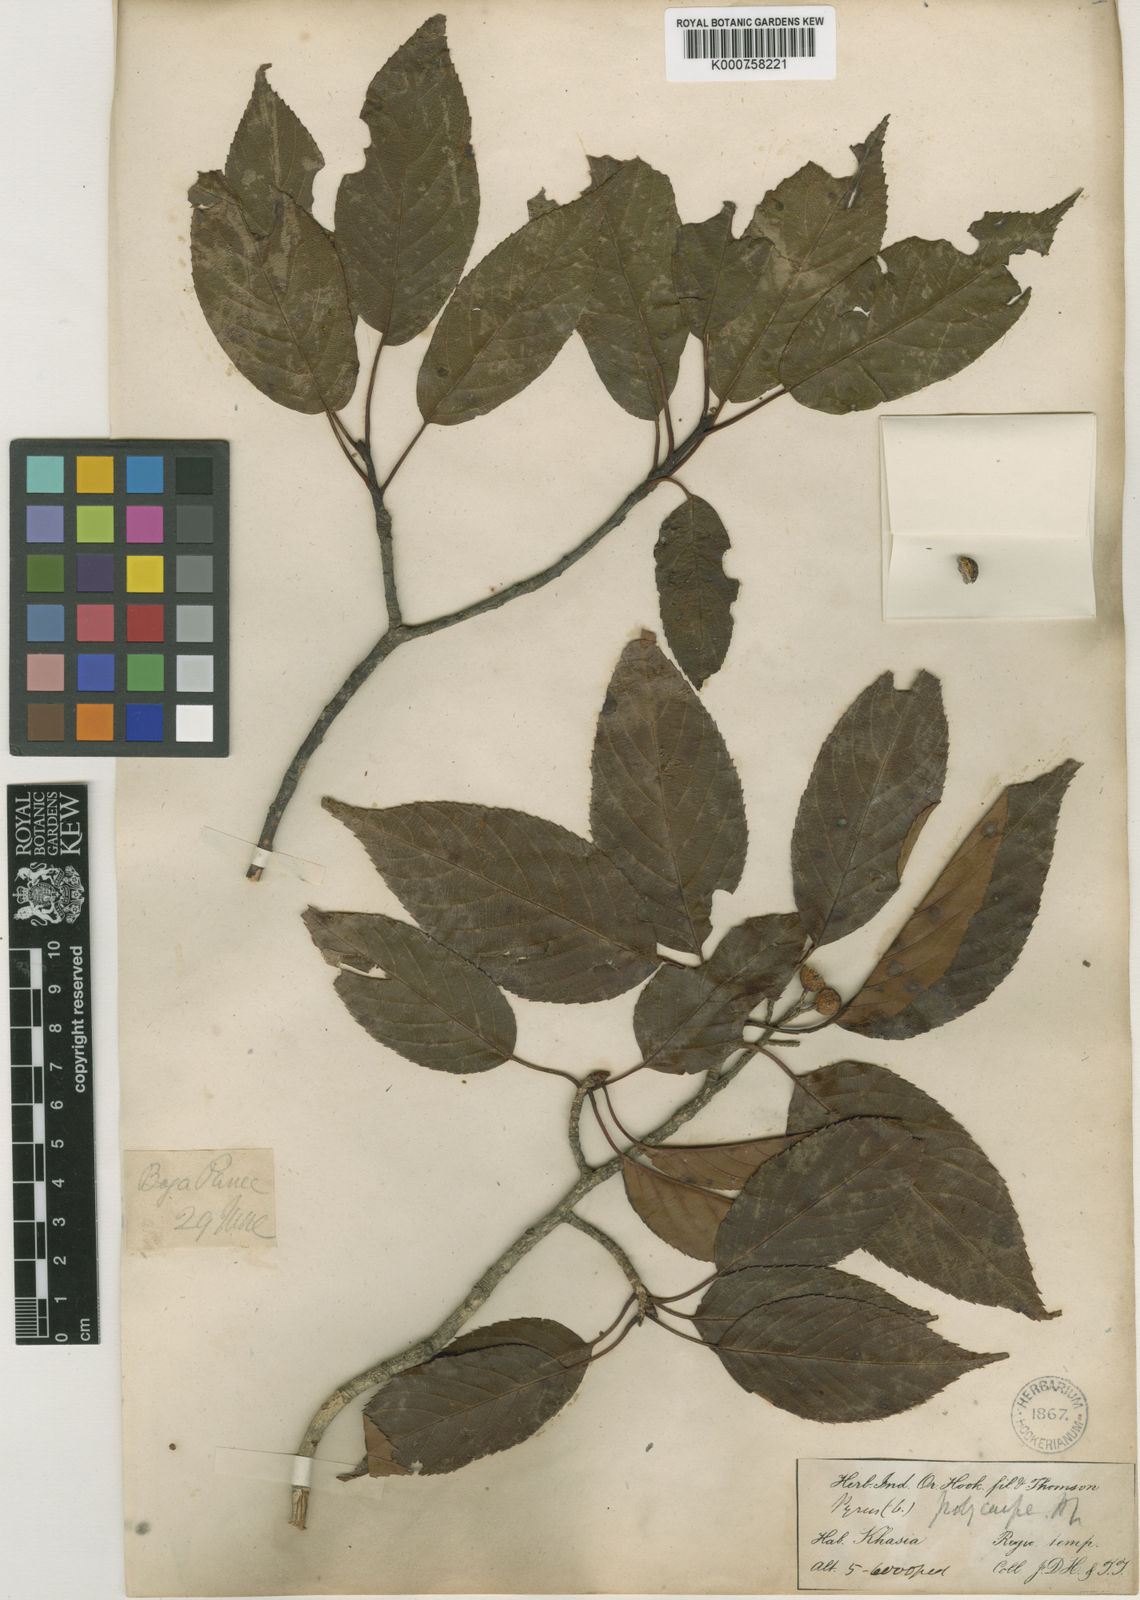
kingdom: Plantae
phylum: Tracheophyta
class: Magnoliopsida
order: Rosales
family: Rosaceae
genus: Micromeles
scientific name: Micromeles cuspidata
